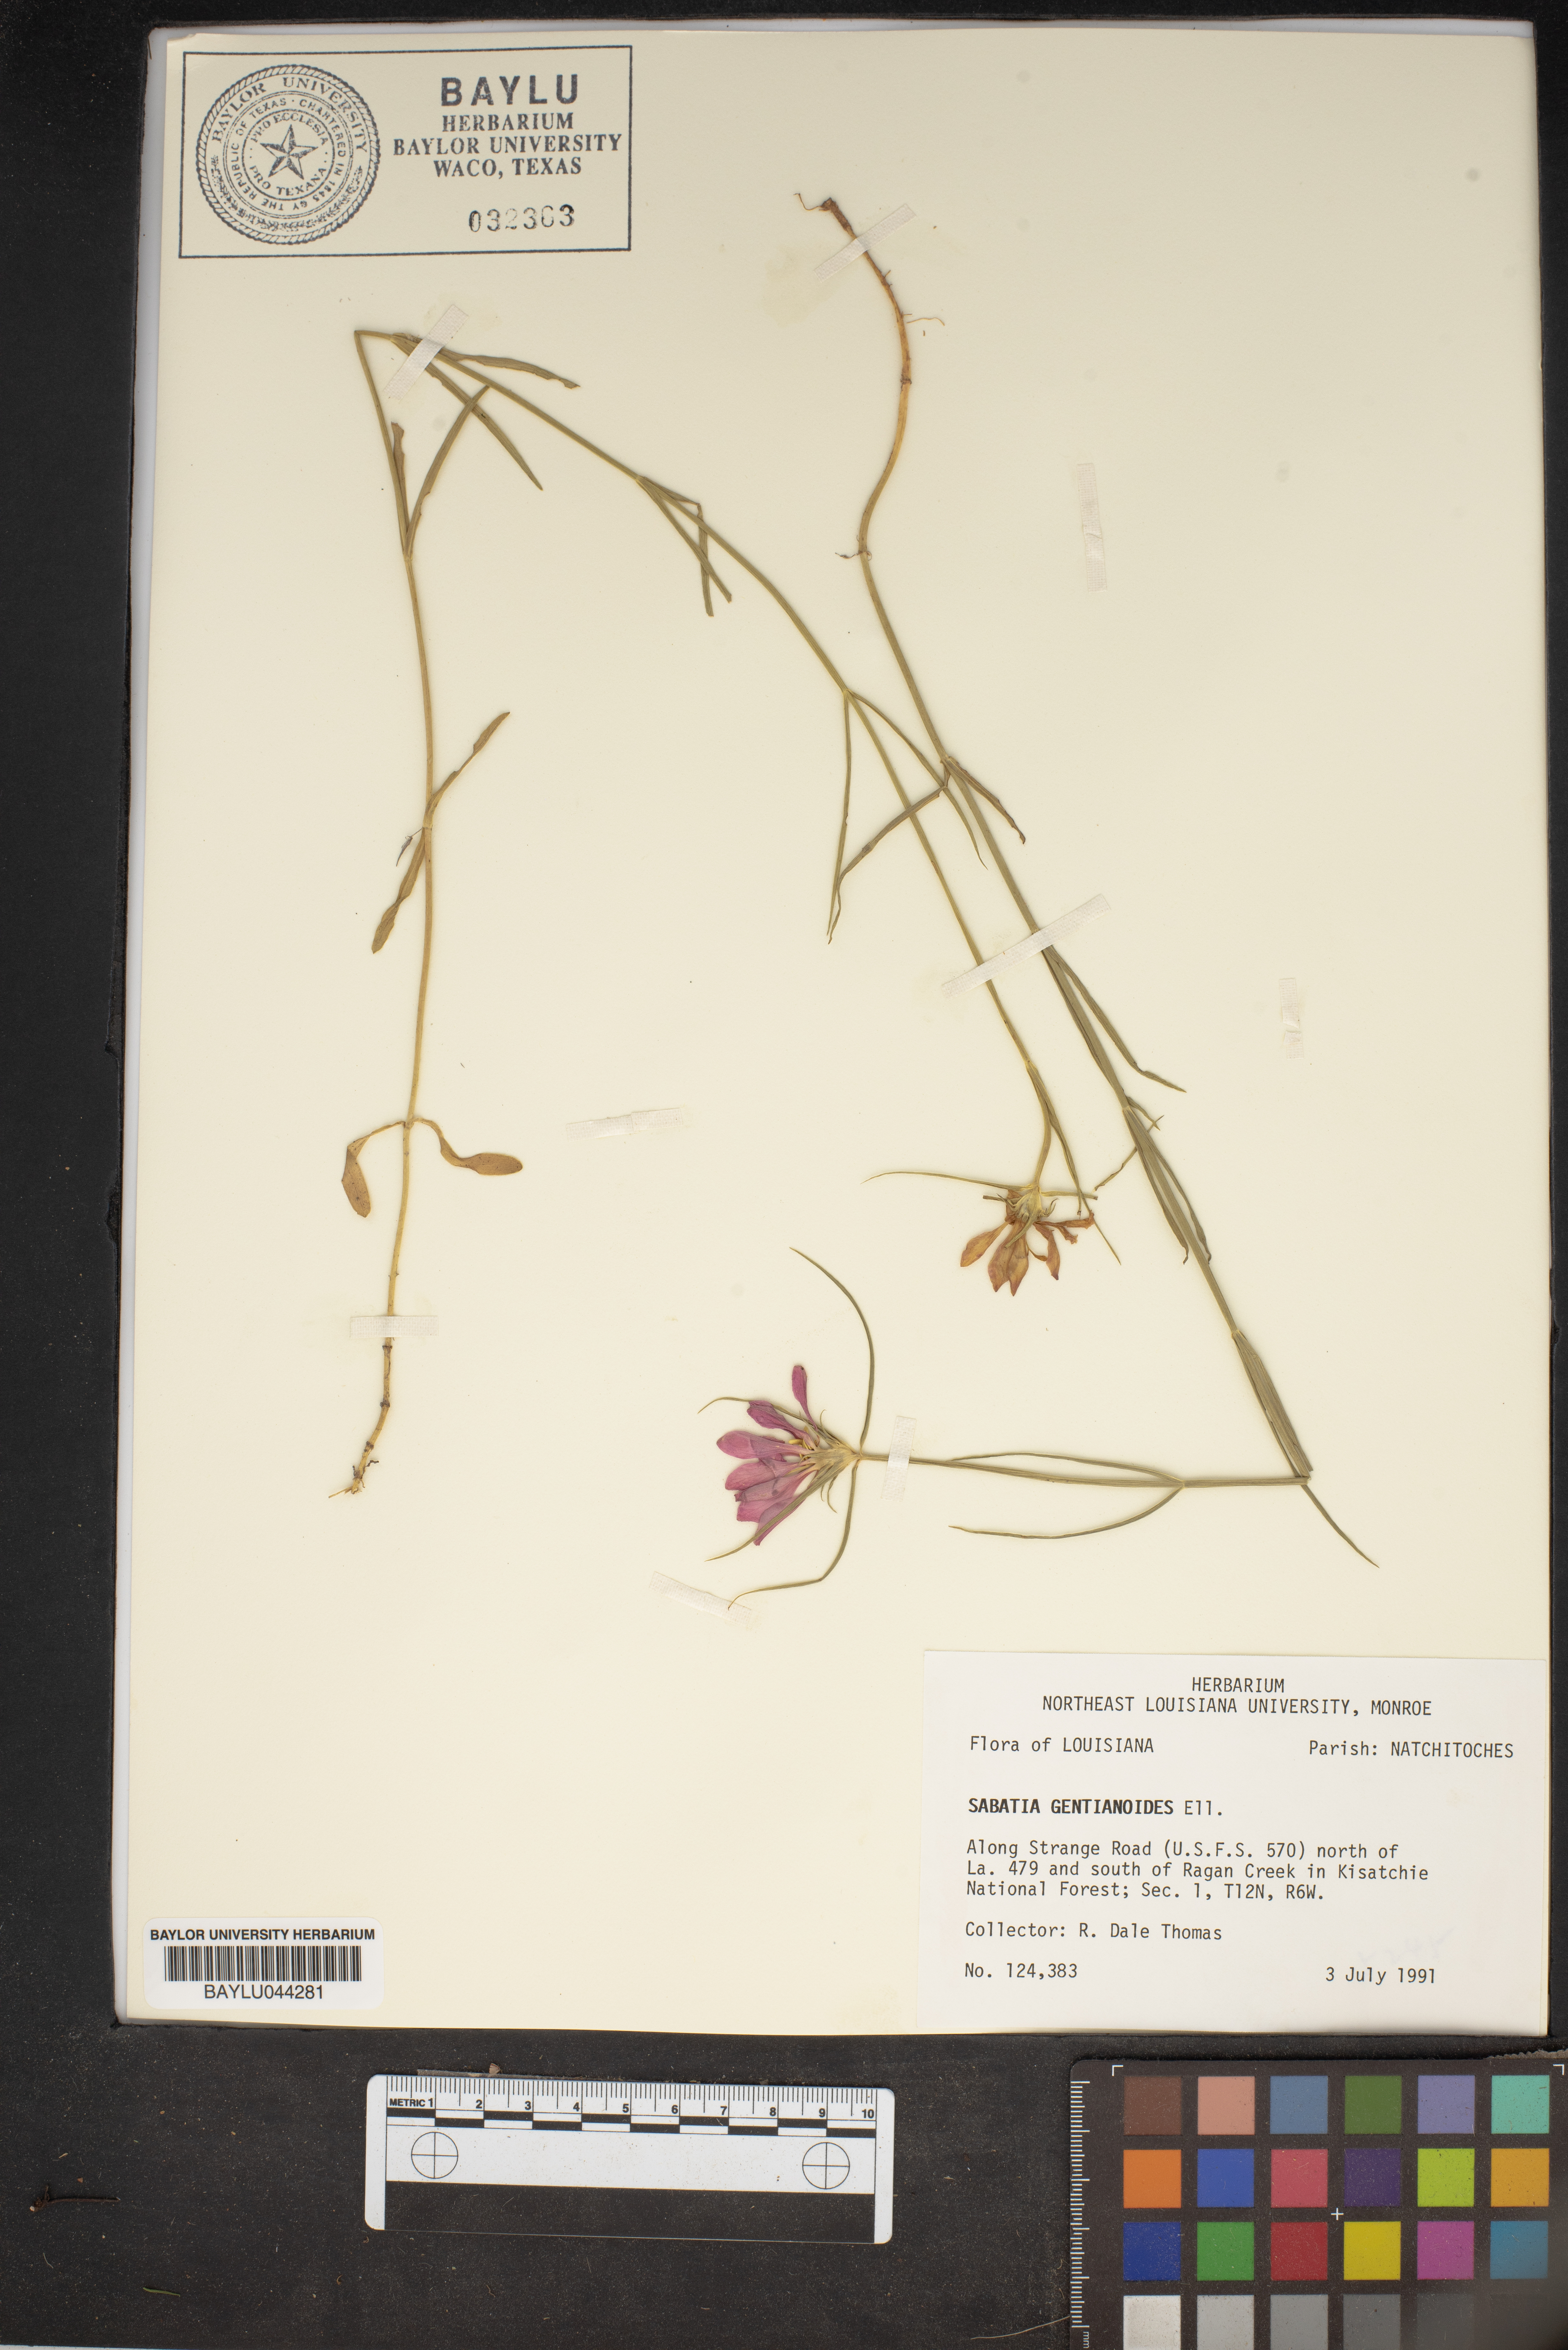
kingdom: Plantae
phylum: Tracheophyta
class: Magnoliopsida
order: Gentianales
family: Gentianaceae
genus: Sabatia
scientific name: Sabatia gentianoides
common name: Pinewoods rose-gentian
